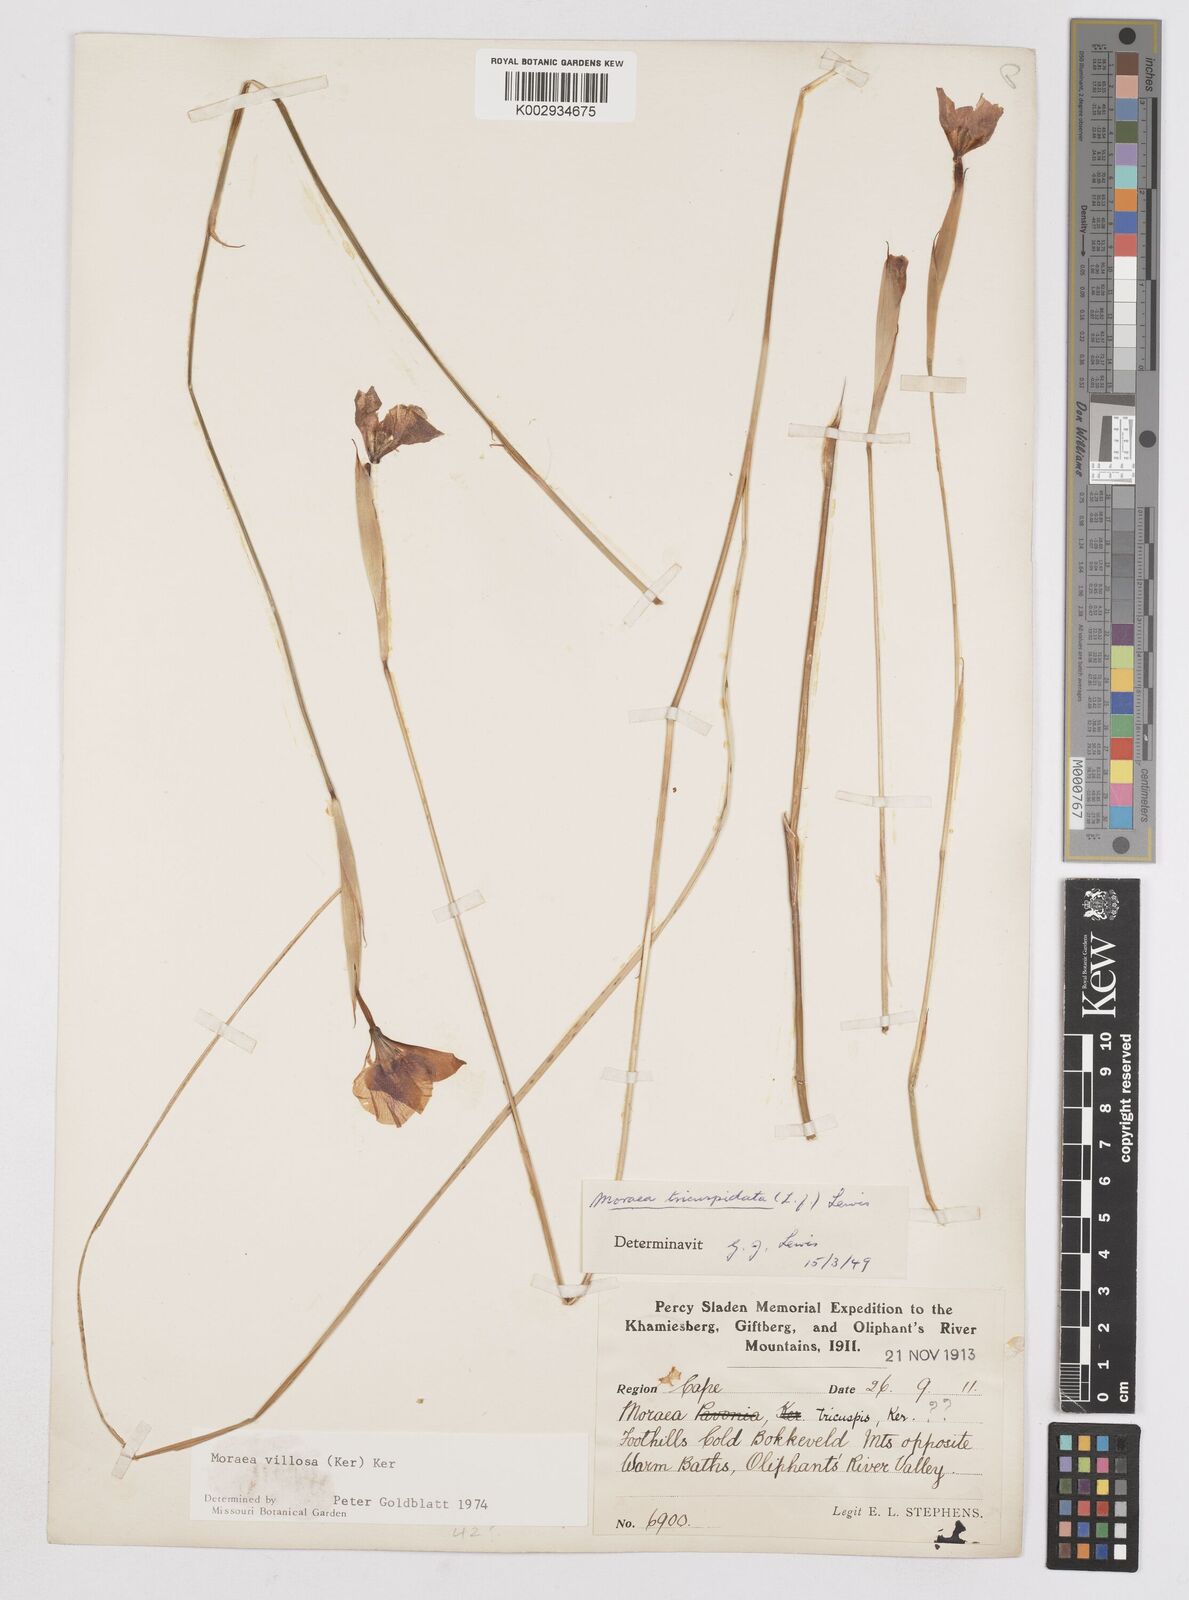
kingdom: Plantae
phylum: Tracheophyta
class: Liliopsida
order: Asparagales
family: Iridaceae
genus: Moraea
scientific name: Moraea villosa
